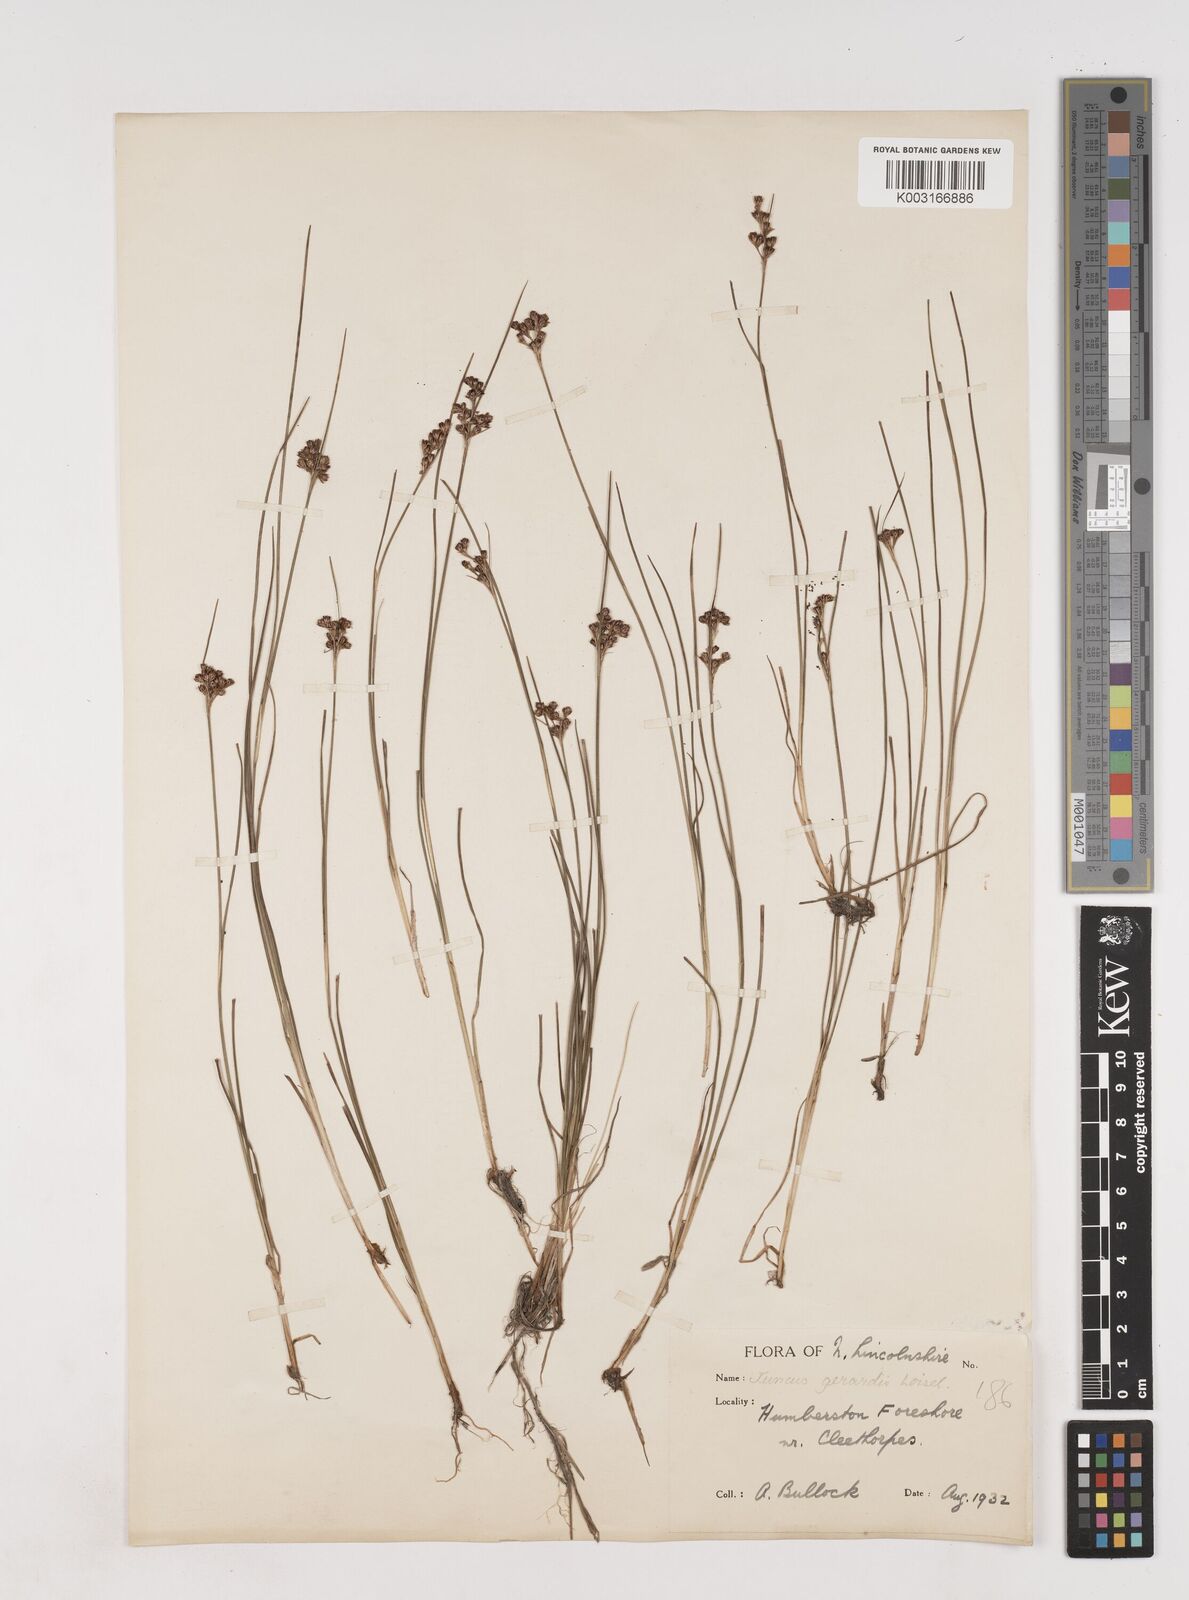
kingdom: Plantae
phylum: Tracheophyta
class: Liliopsida
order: Poales
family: Juncaceae
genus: Juncus
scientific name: Juncus gerardi
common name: Saltmarsh rush
